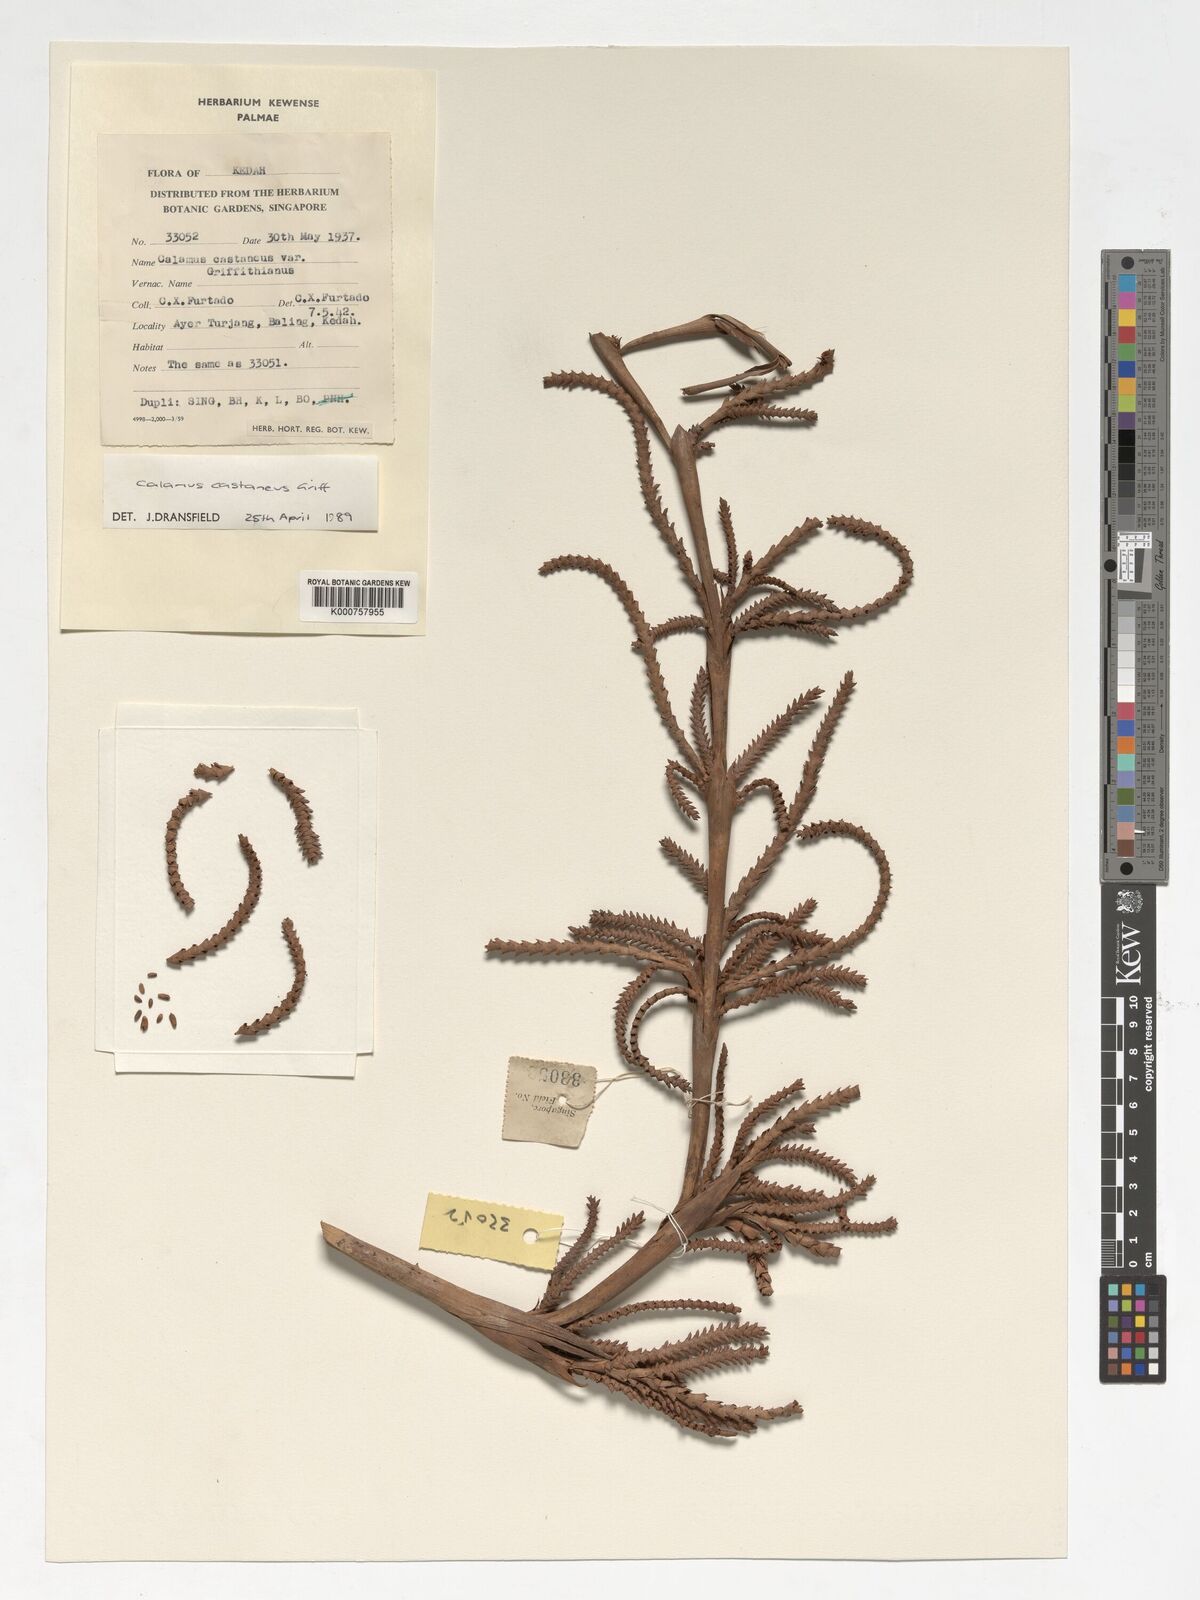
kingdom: Plantae
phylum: Tracheophyta
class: Liliopsida
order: Arecales
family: Arecaceae
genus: Calamus
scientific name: Calamus castaneus
